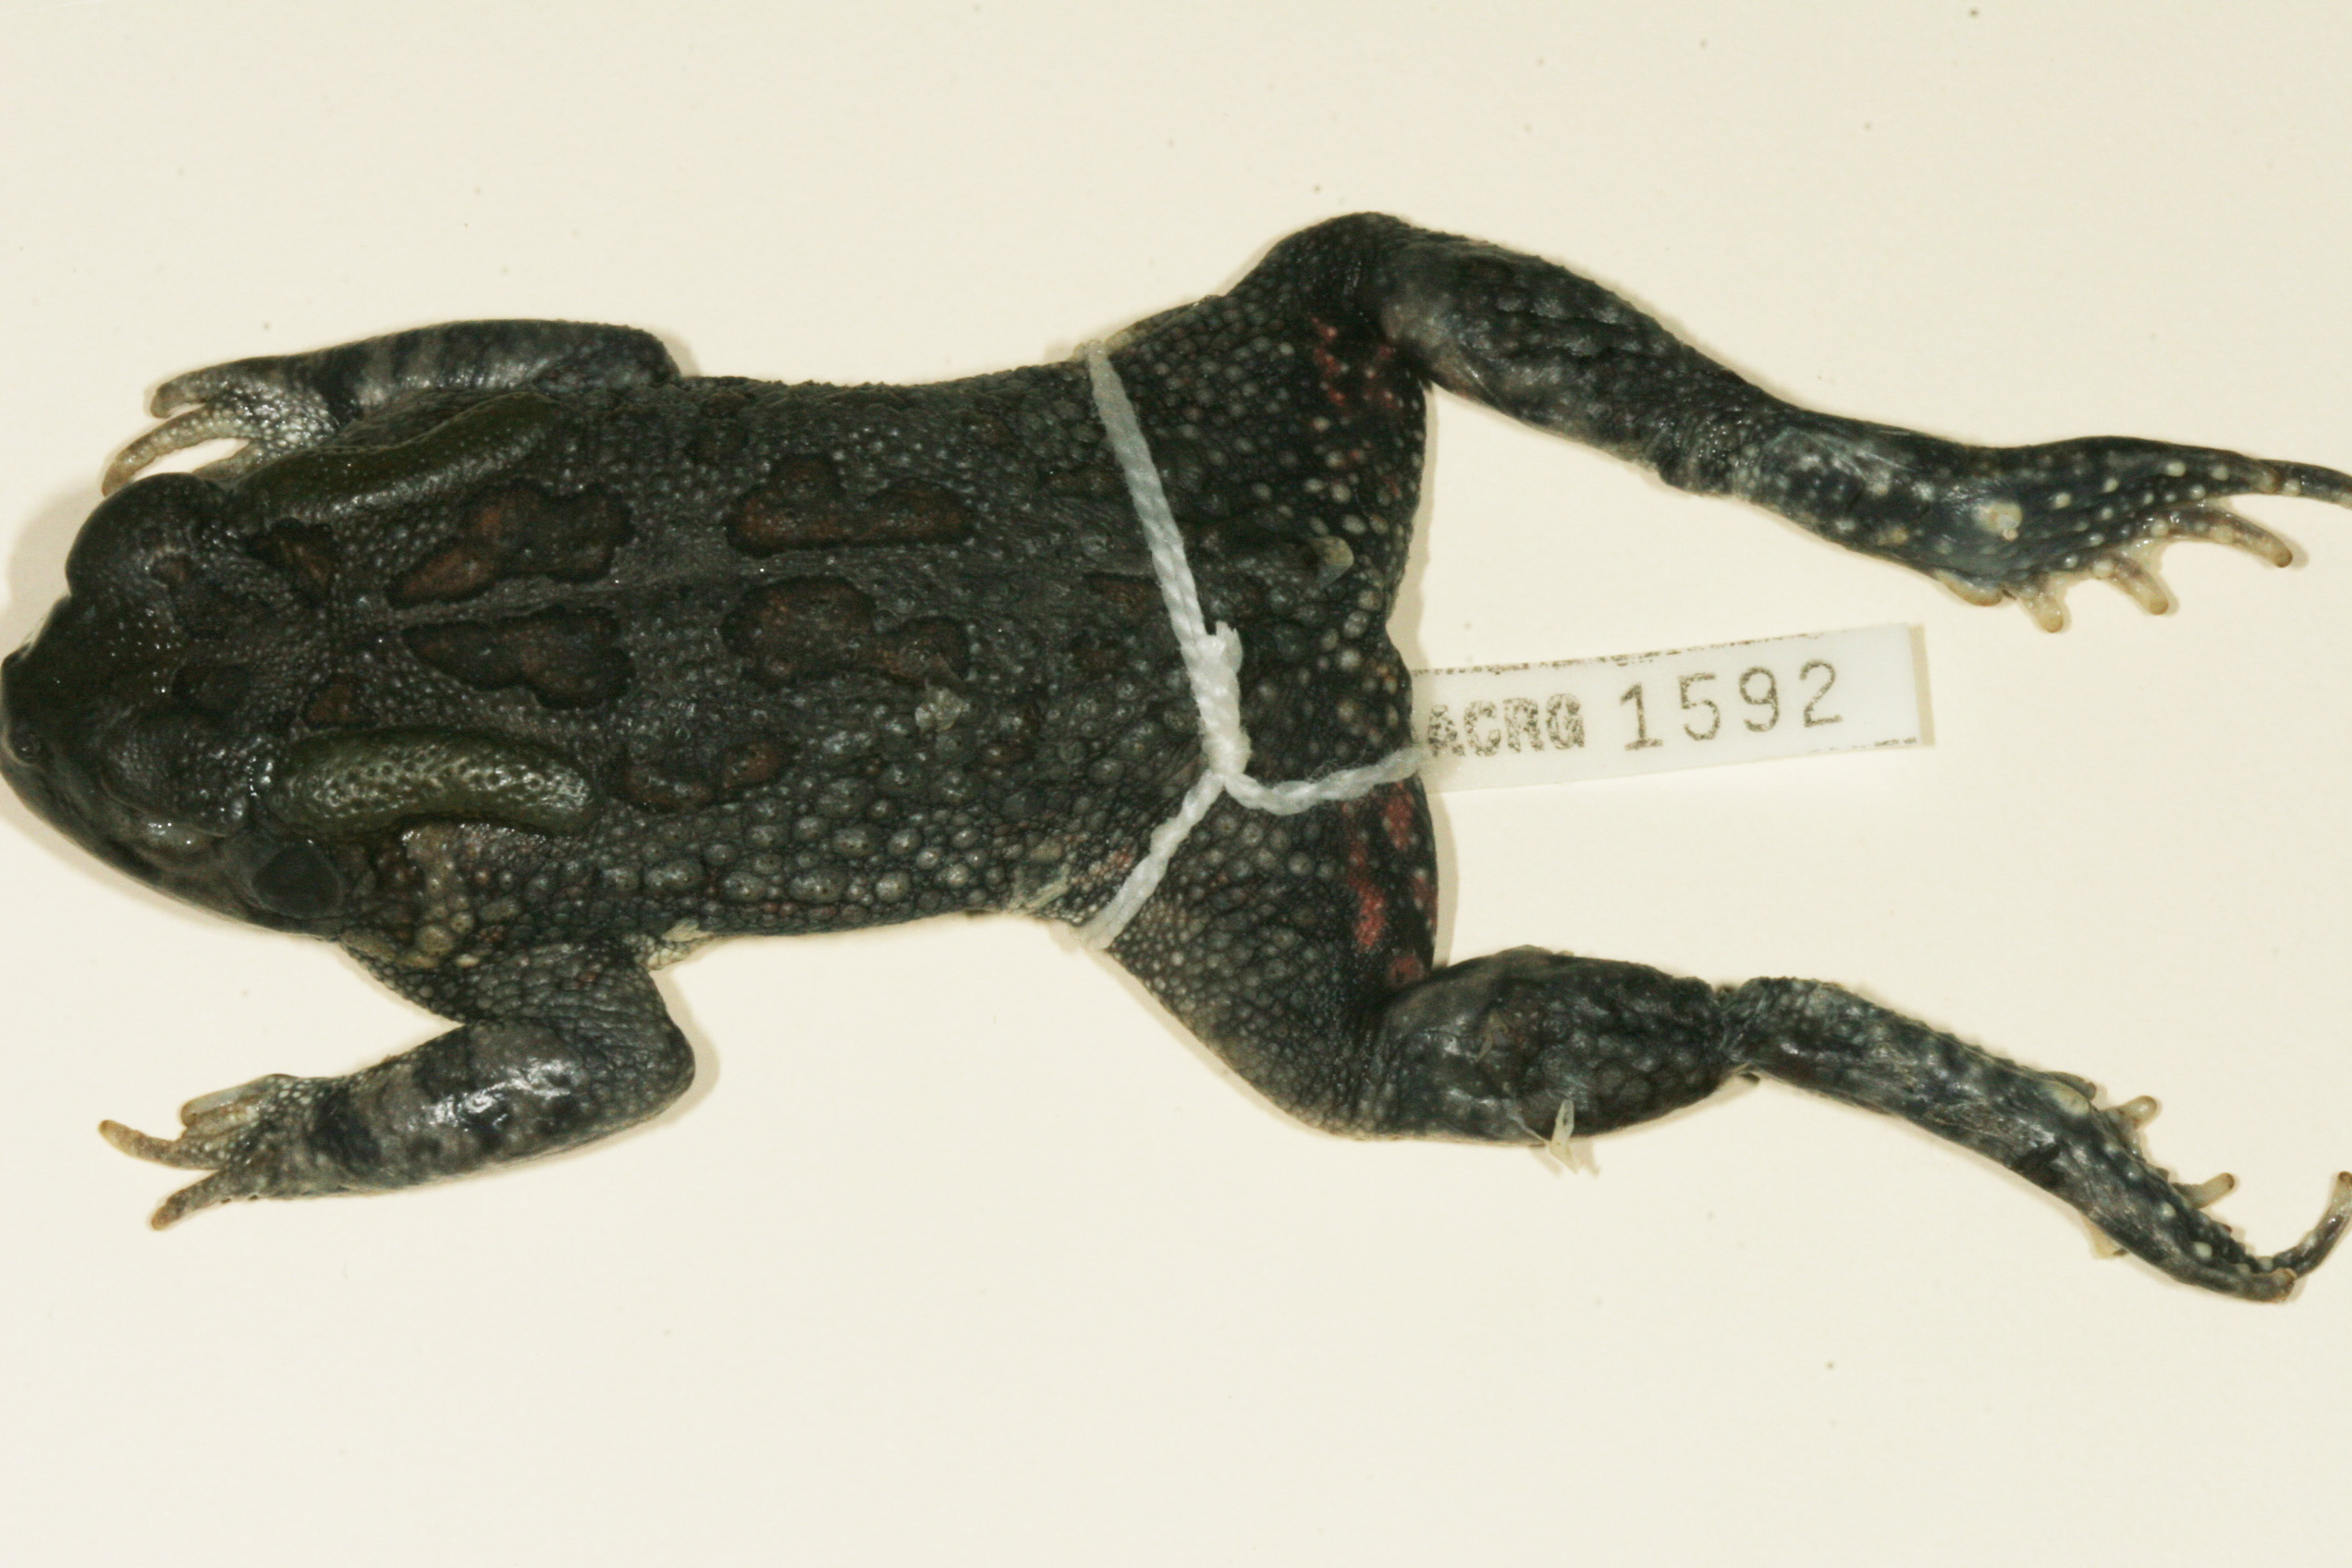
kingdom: Animalia
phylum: Chordata
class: Amphibia
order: Anura
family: Bufonidae
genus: Sclerophrys
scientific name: Sclerophrys garmani
